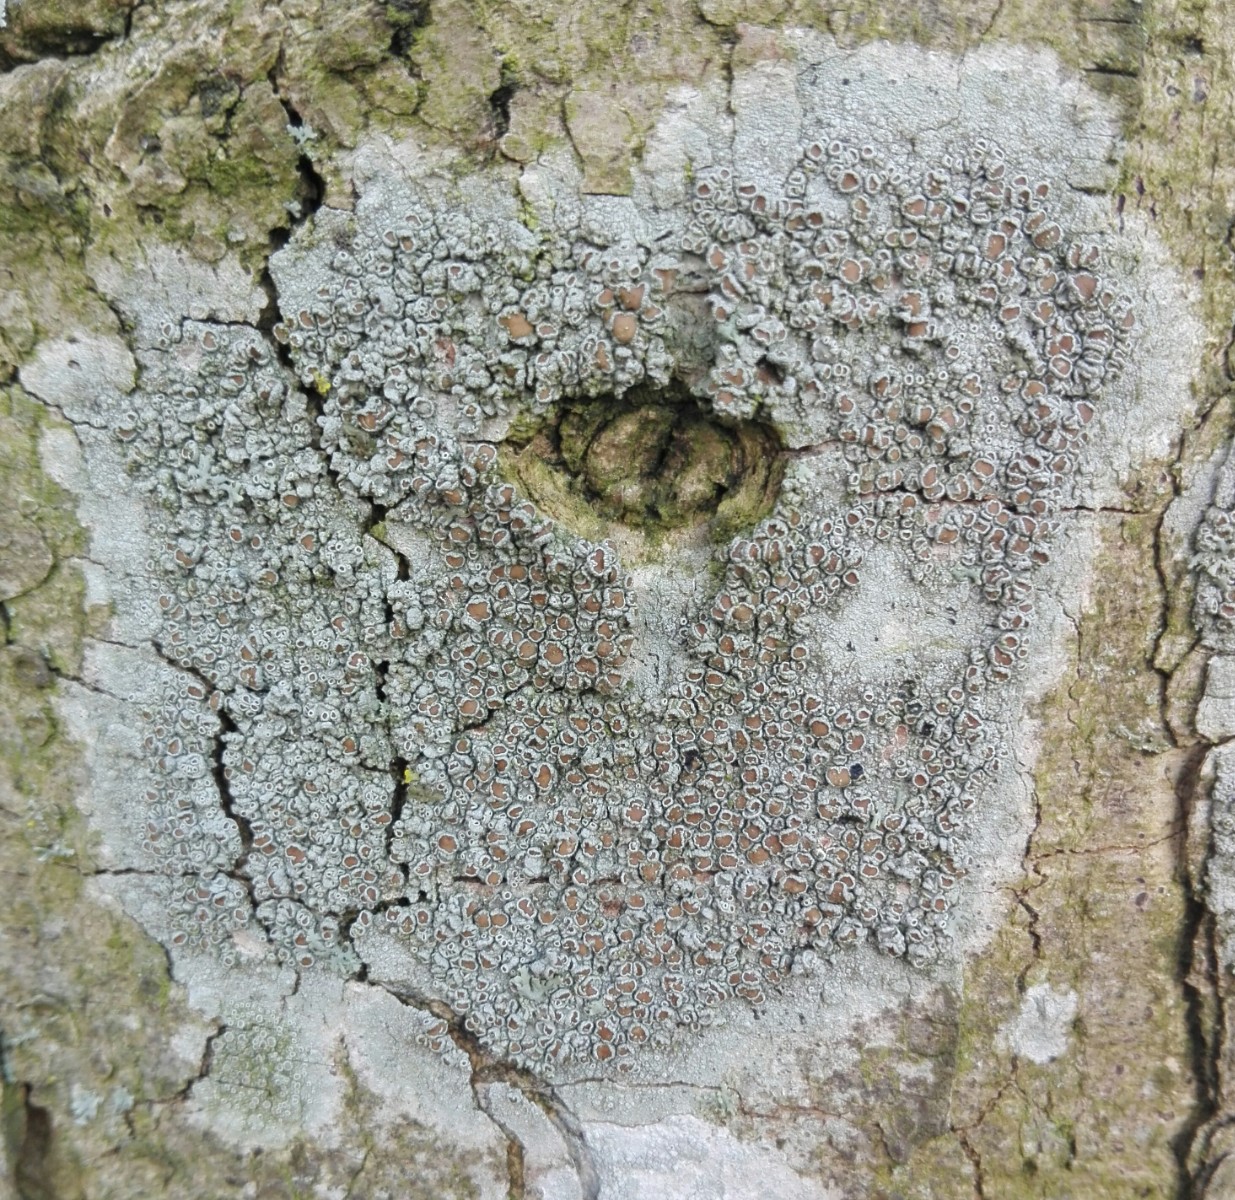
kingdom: Fungi
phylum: Ascomycota
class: Lecanoromycetes
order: Lecanorales
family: Lecanoraceae
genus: Lecanora
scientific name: Lecanora chlarotera
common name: brun kantskivelav
